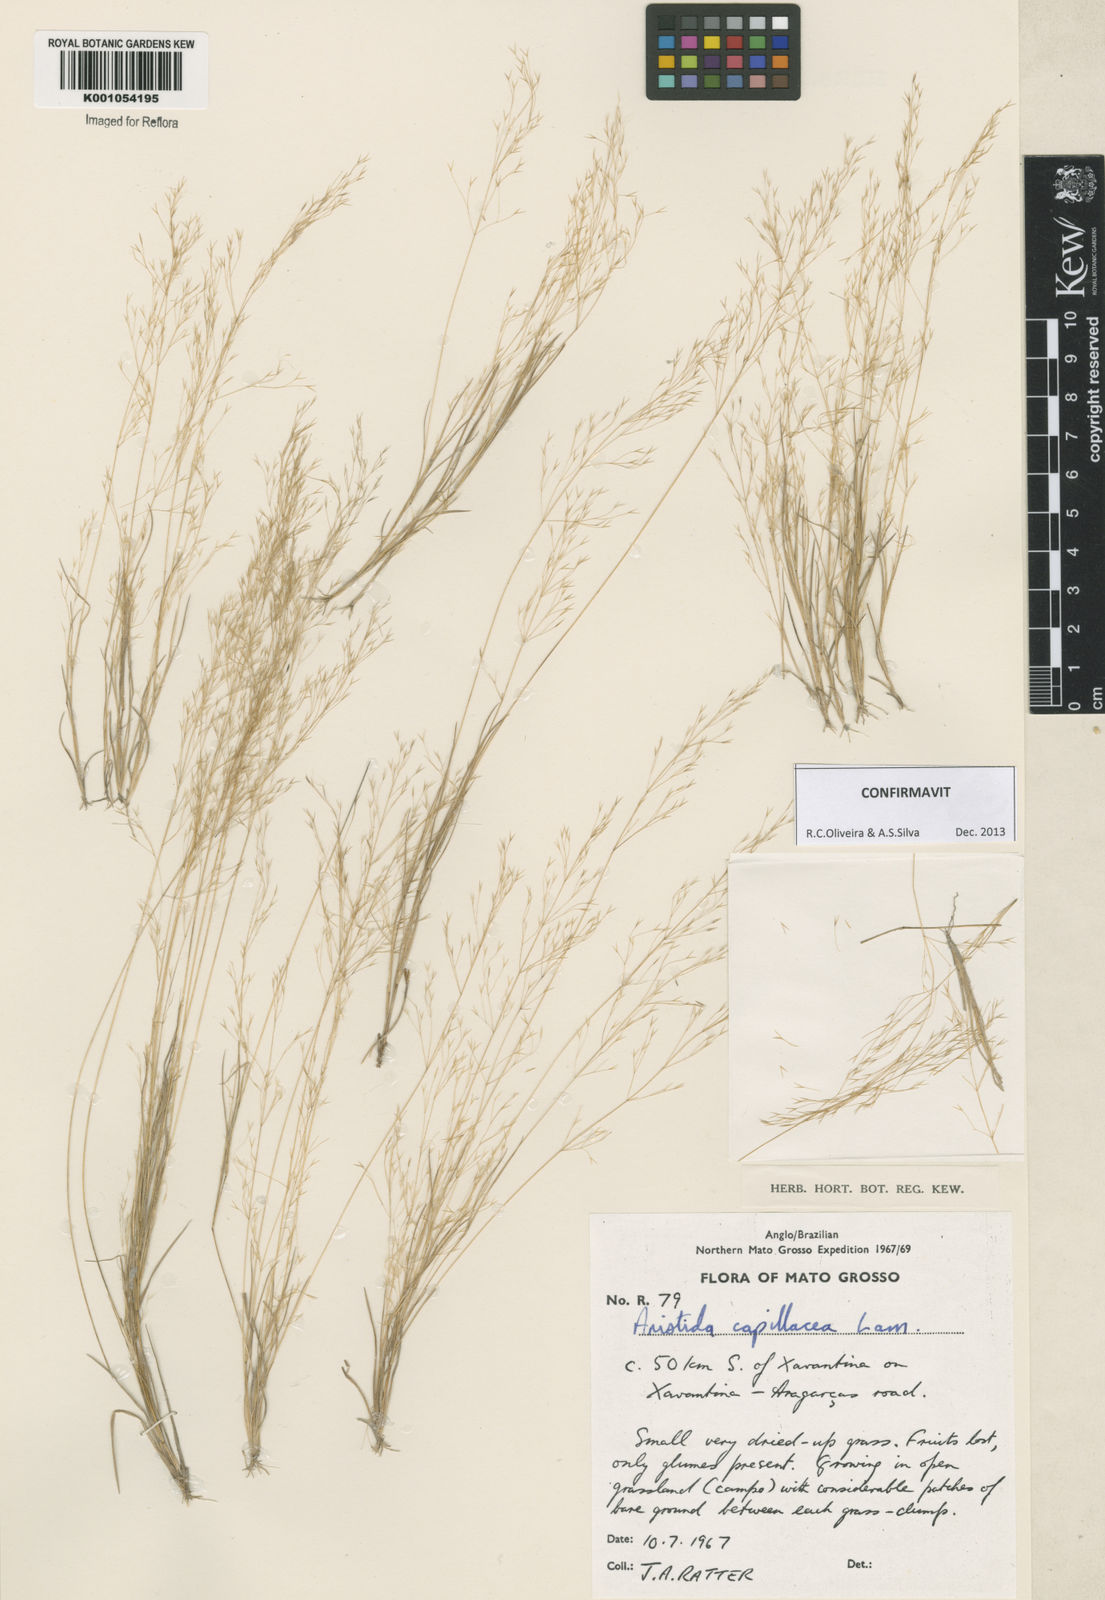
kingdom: Plantae
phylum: Tracheophyta
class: Liliopsida
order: Poales
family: Poaceae
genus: Aristida
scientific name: Aristida capillacea
